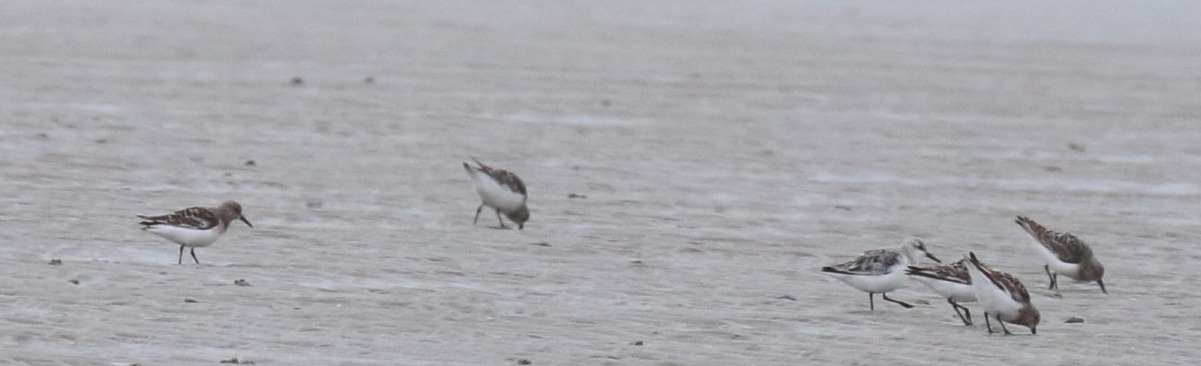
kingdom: Animalia
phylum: Chordata
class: Aves
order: Charadriiformes
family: Scolopacidae
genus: Calidris
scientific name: Calidris alba
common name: Sandløber
